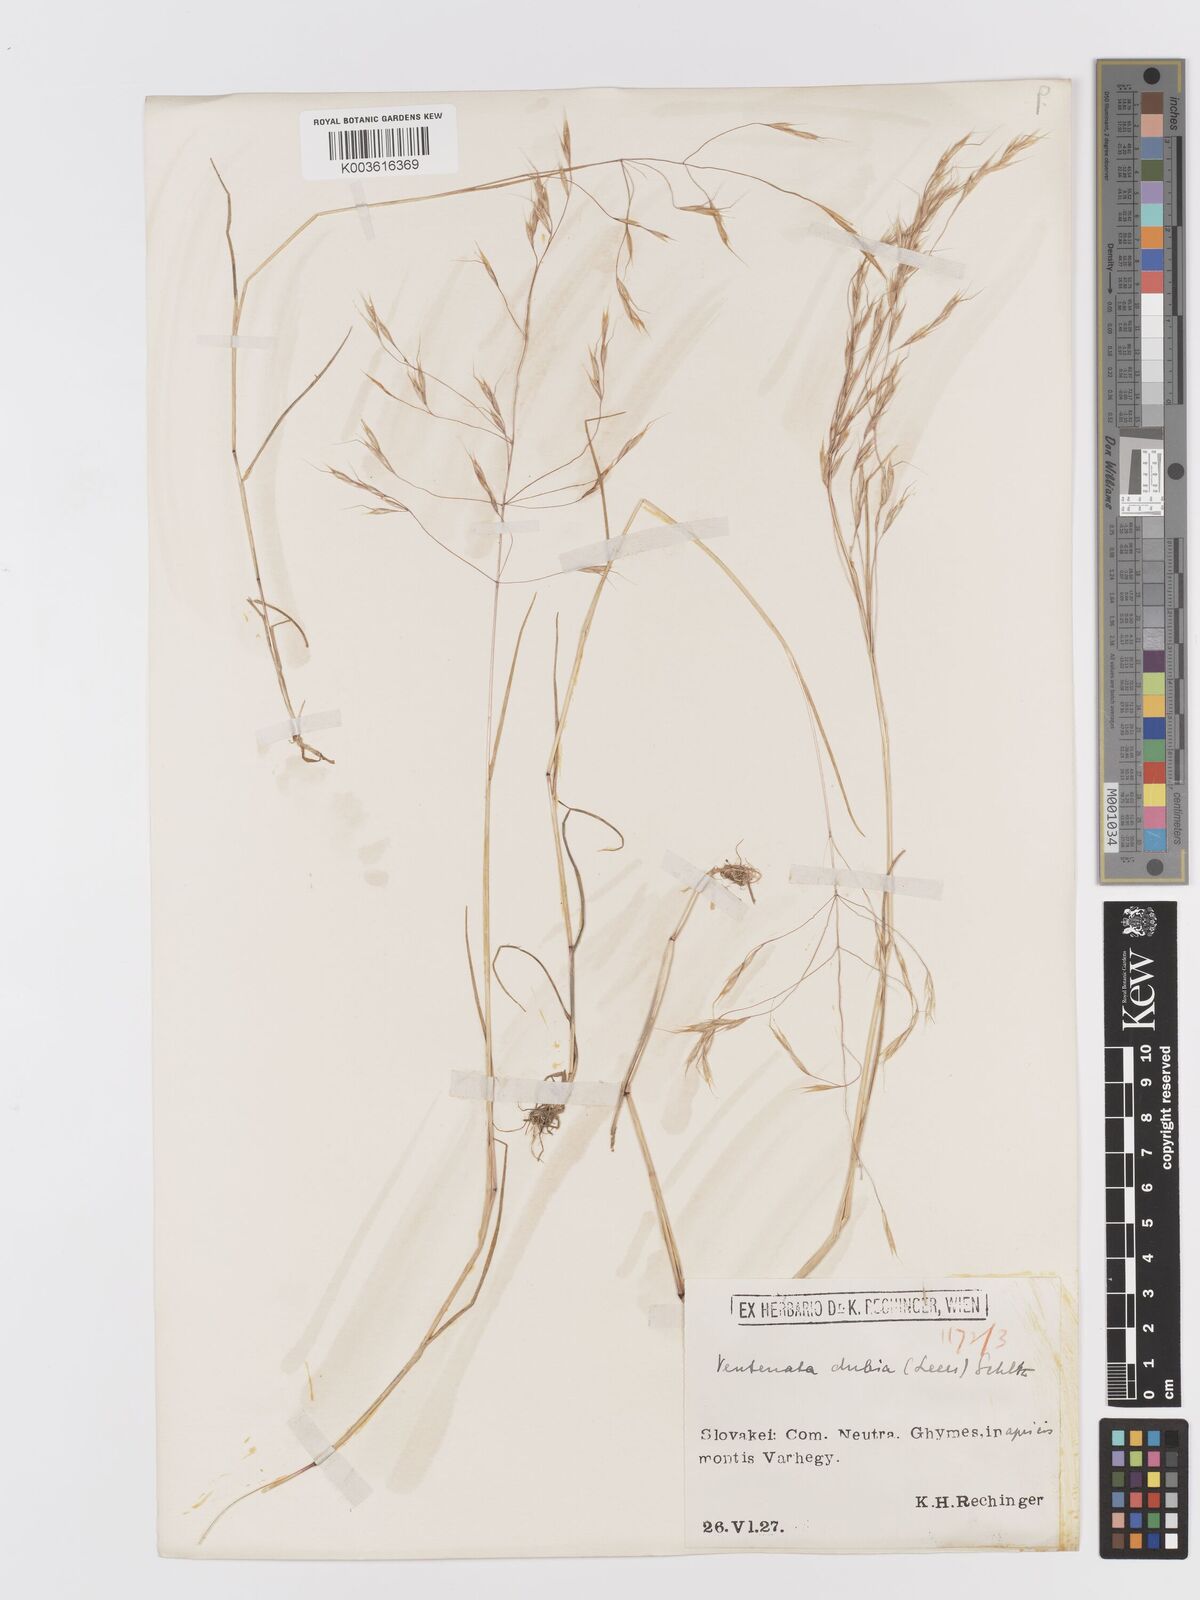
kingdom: Plantae
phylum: Tracheophyta
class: Liliopsida
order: Poales
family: Poaceae
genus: Ventenata
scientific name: Ventenata dubia
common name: North africa grass
